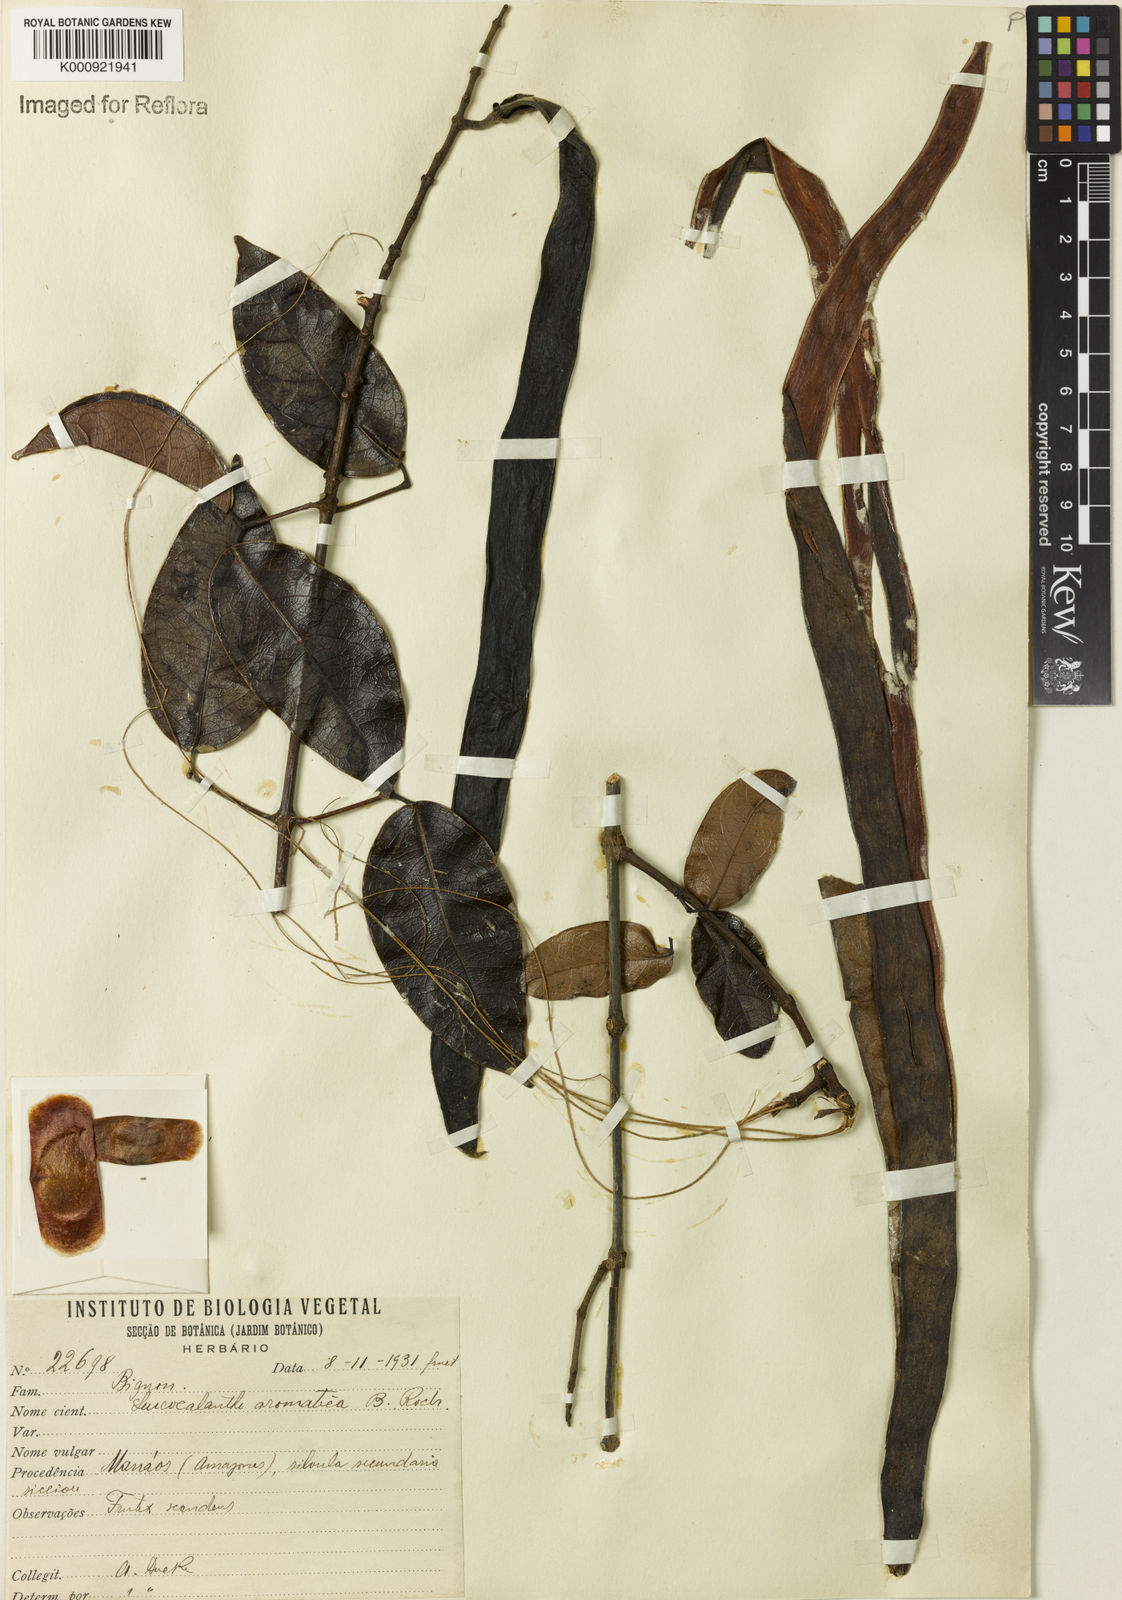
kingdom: Plantae
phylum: Tracheophyta
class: Magnoliopsida
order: Lamiales
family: Bignoniaceae
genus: Pachyptera
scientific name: Pachyptera aromatica
